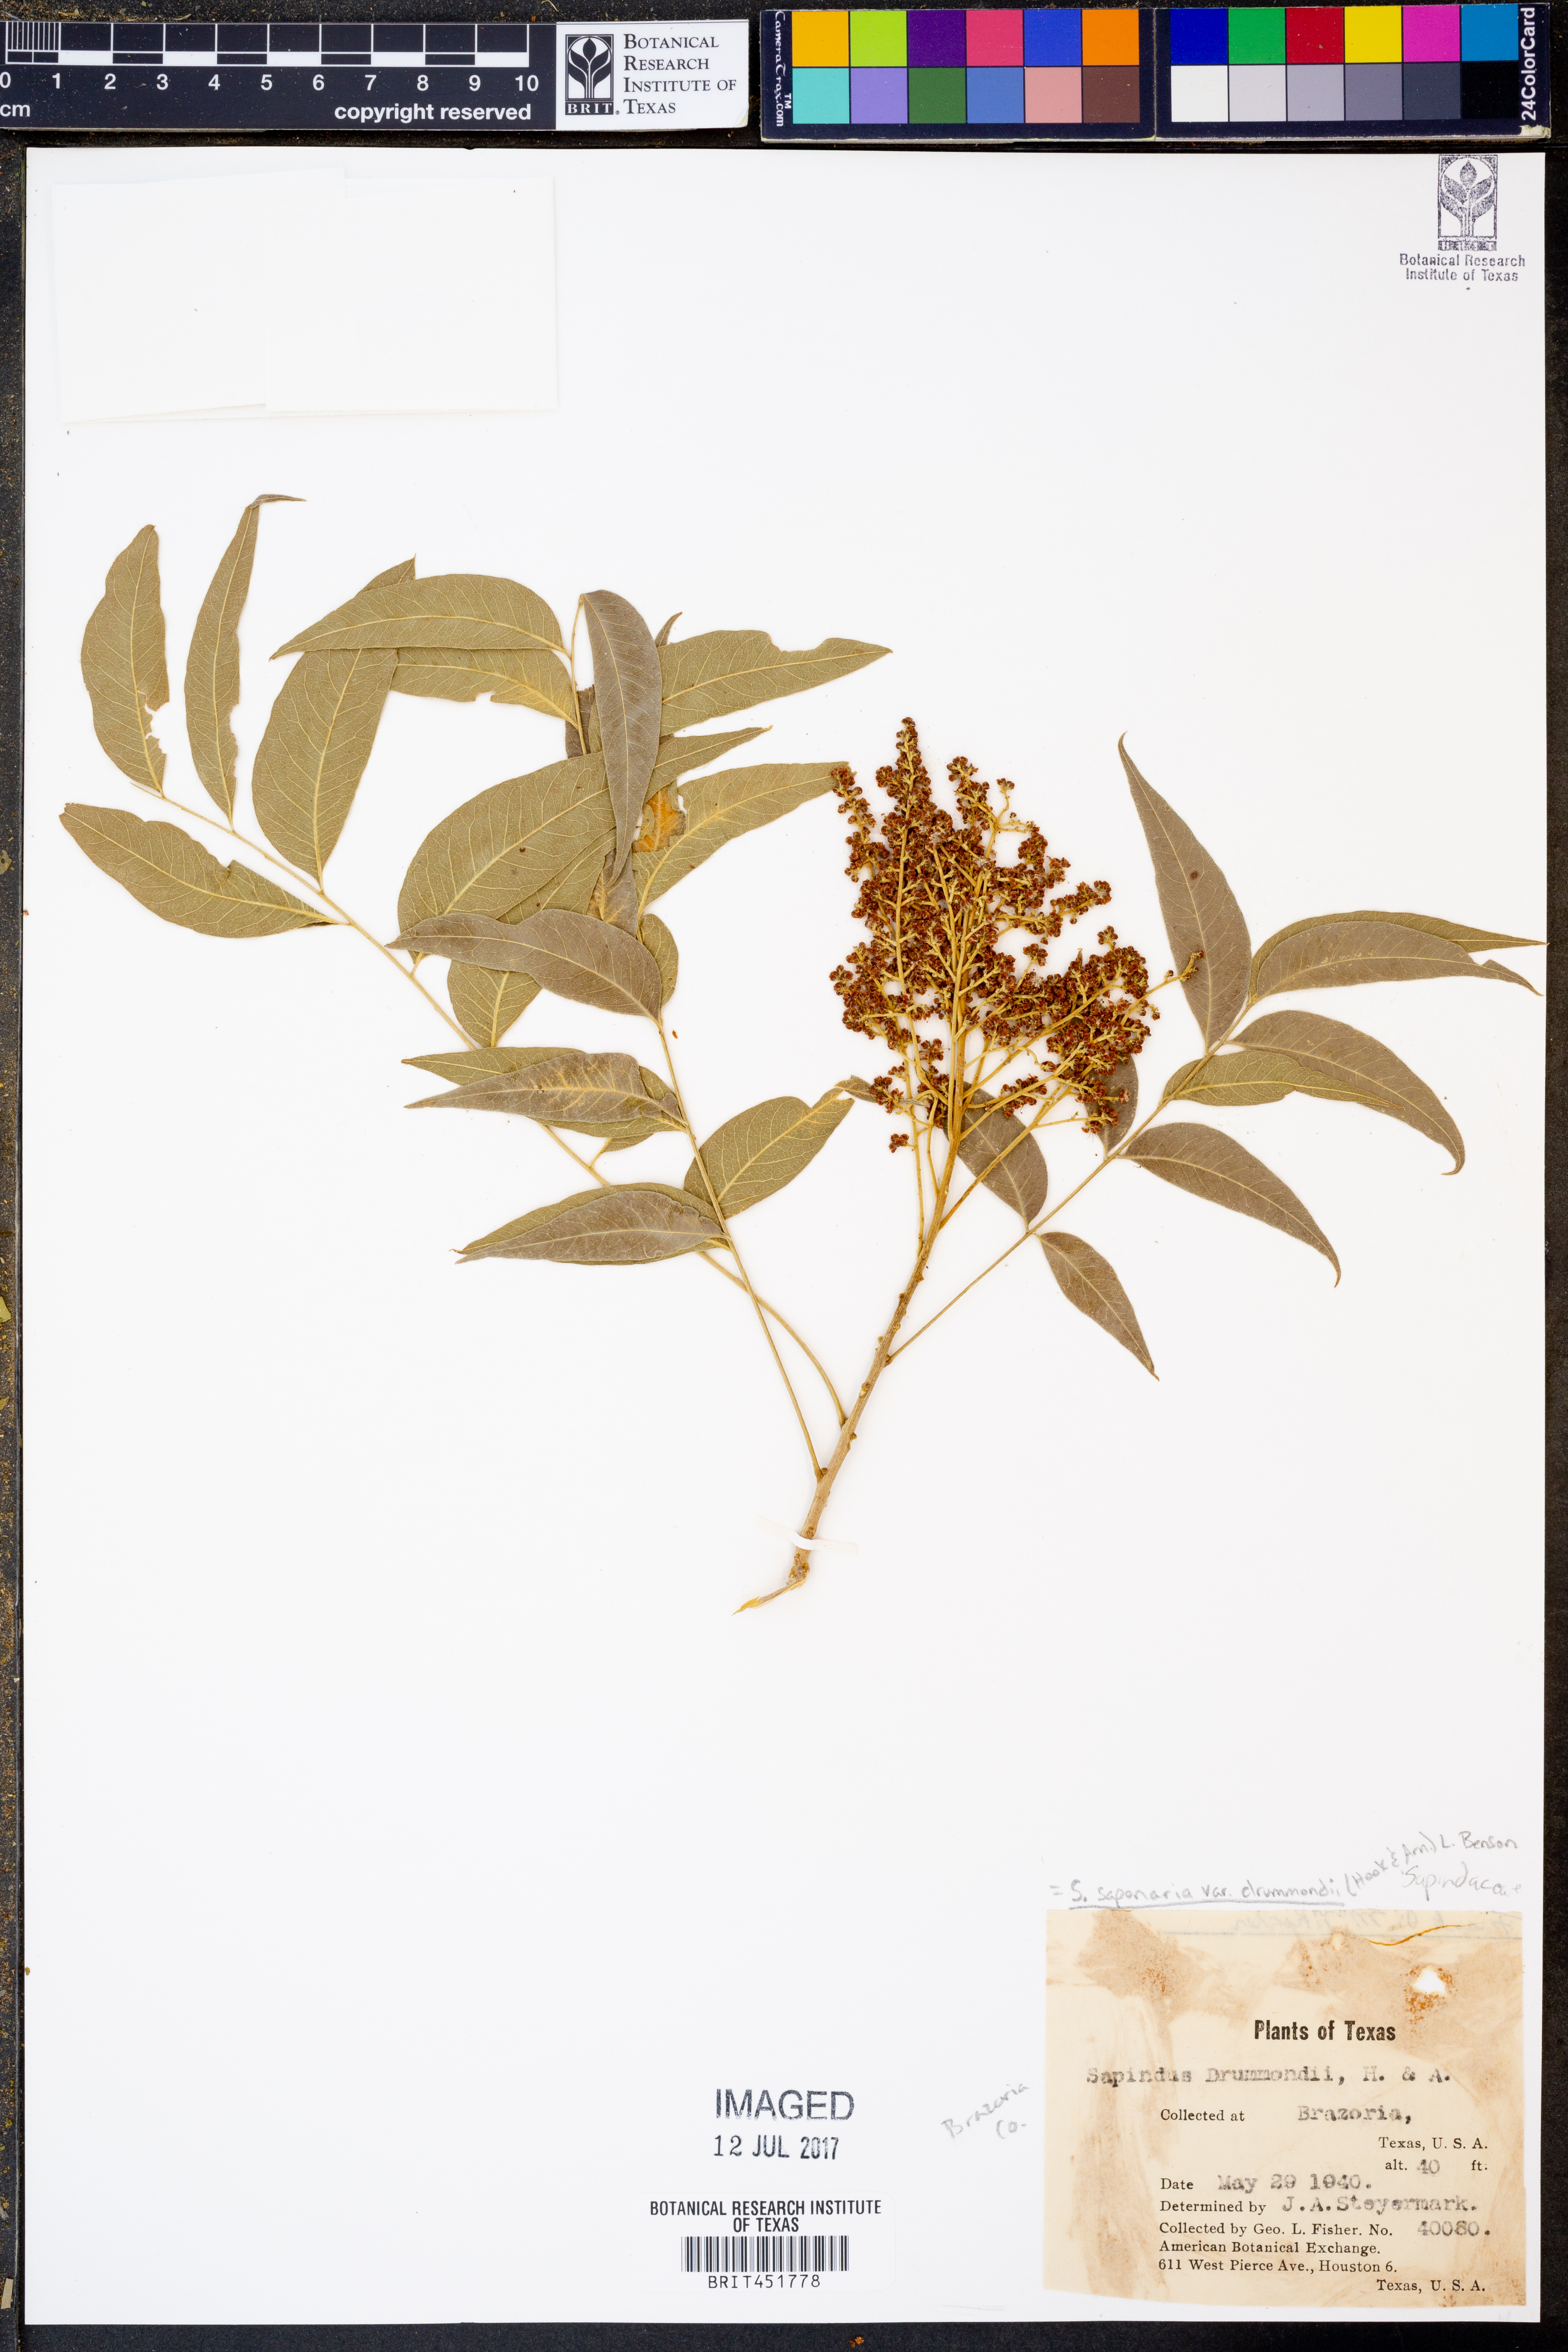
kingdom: Plantae
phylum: Tracheophyta
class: Magnoliopsida
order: Sapindales
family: Sapindaceae
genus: Sapindus
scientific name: Sapindus drummondii
